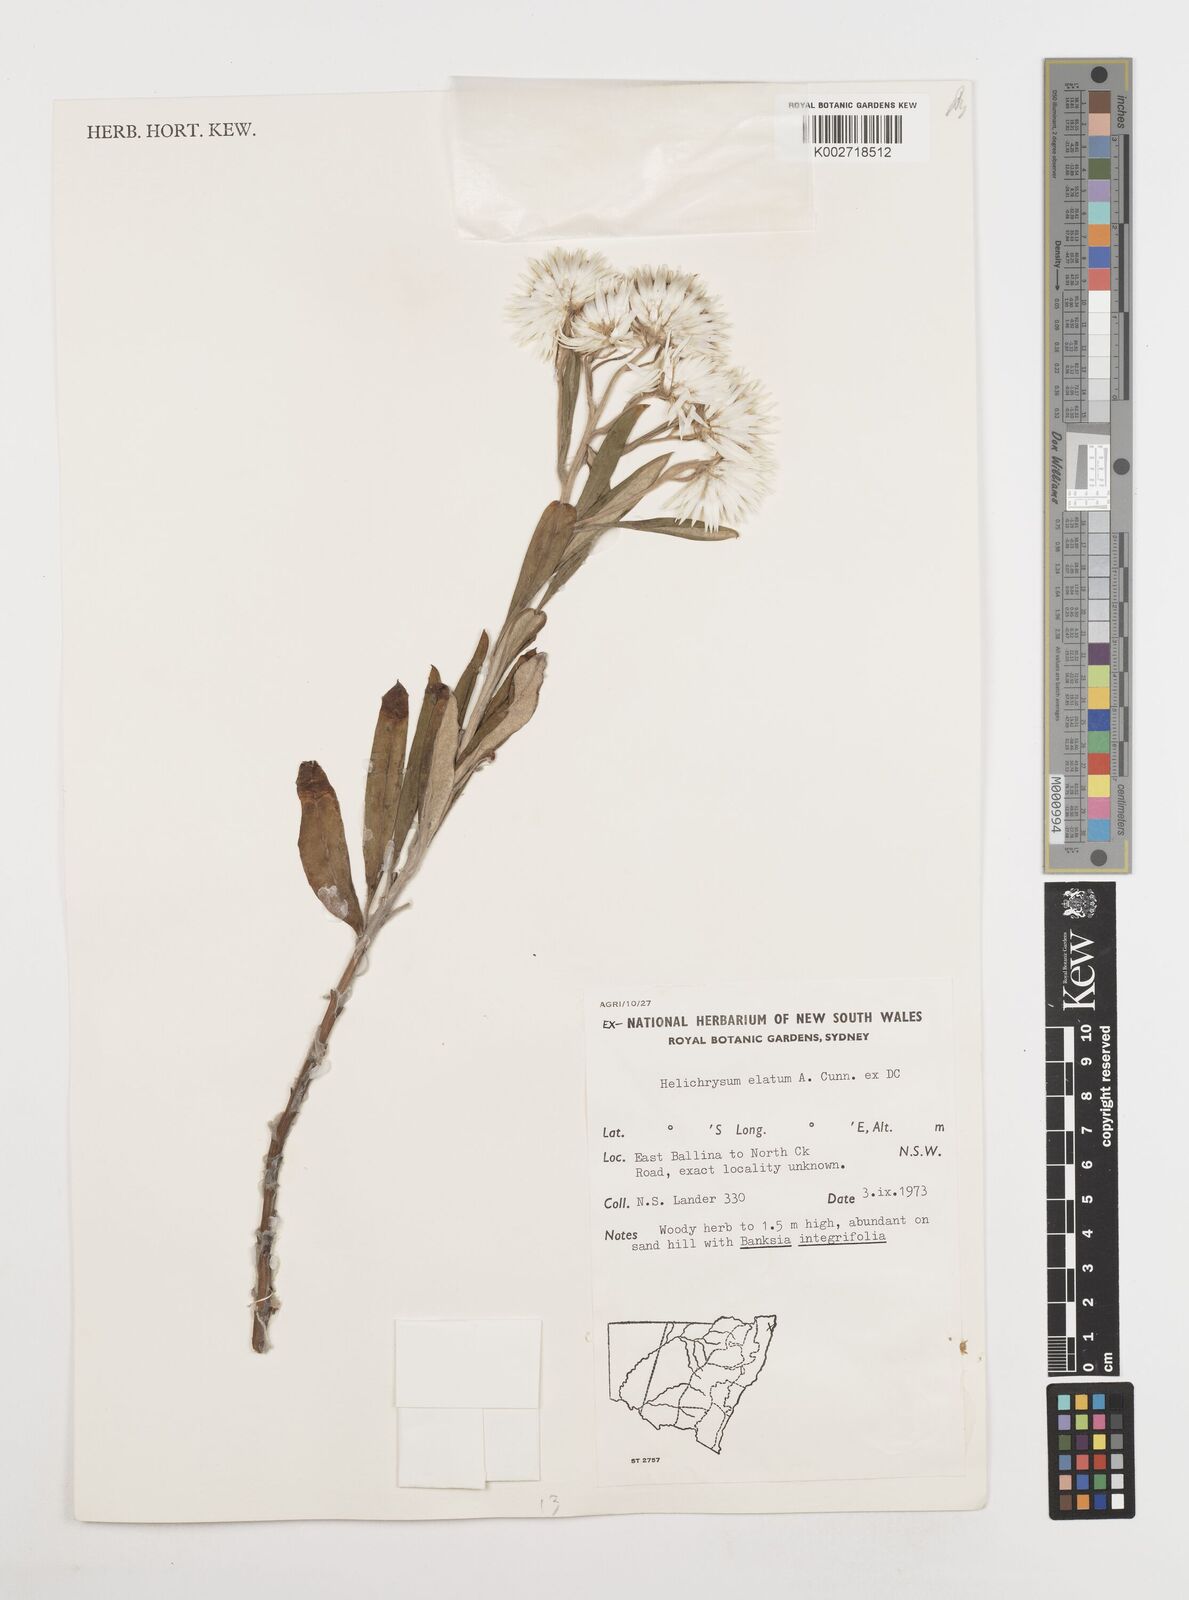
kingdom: Plantae
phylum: Tracheophyta
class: Magnoliopsida
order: Asterales
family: Asteraceae
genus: Leucozoma
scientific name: Leucozoma elatum
